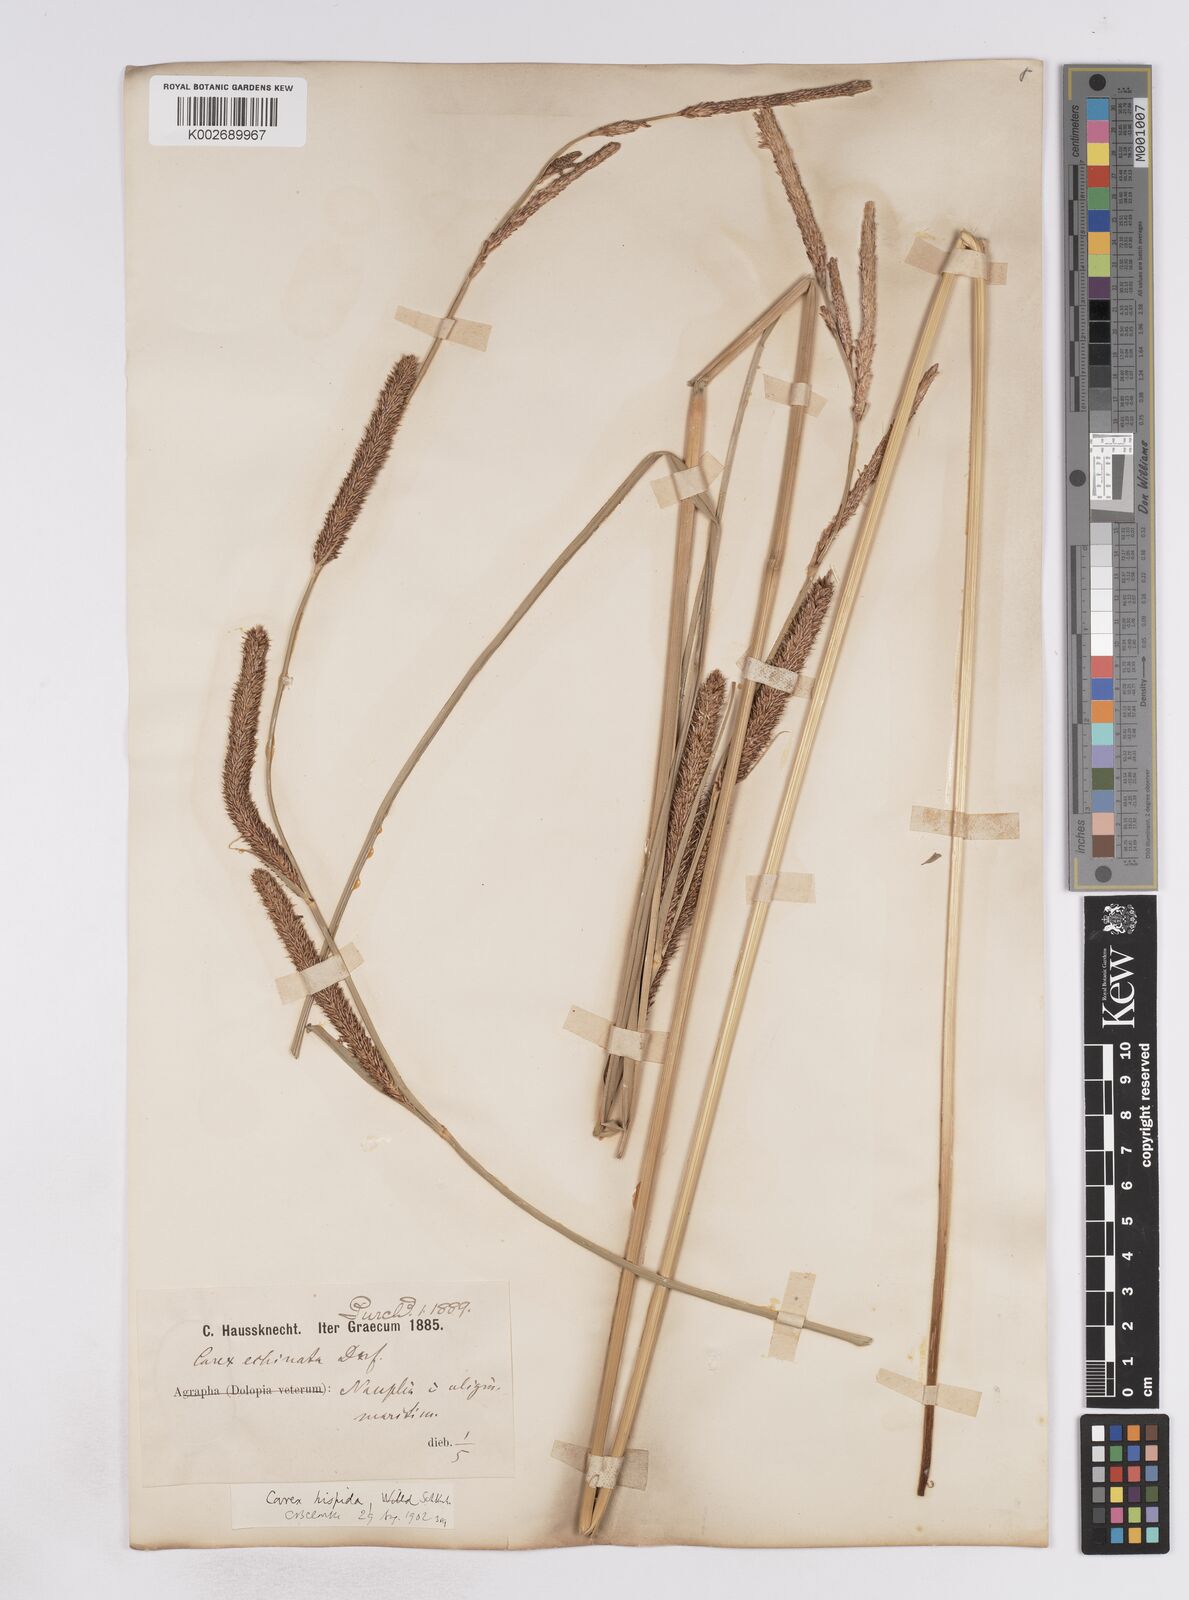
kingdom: Plantae
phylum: Tracheophyta
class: Liliopsida
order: Poales
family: Cyperaceae
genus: Carex
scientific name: Carex hispida
